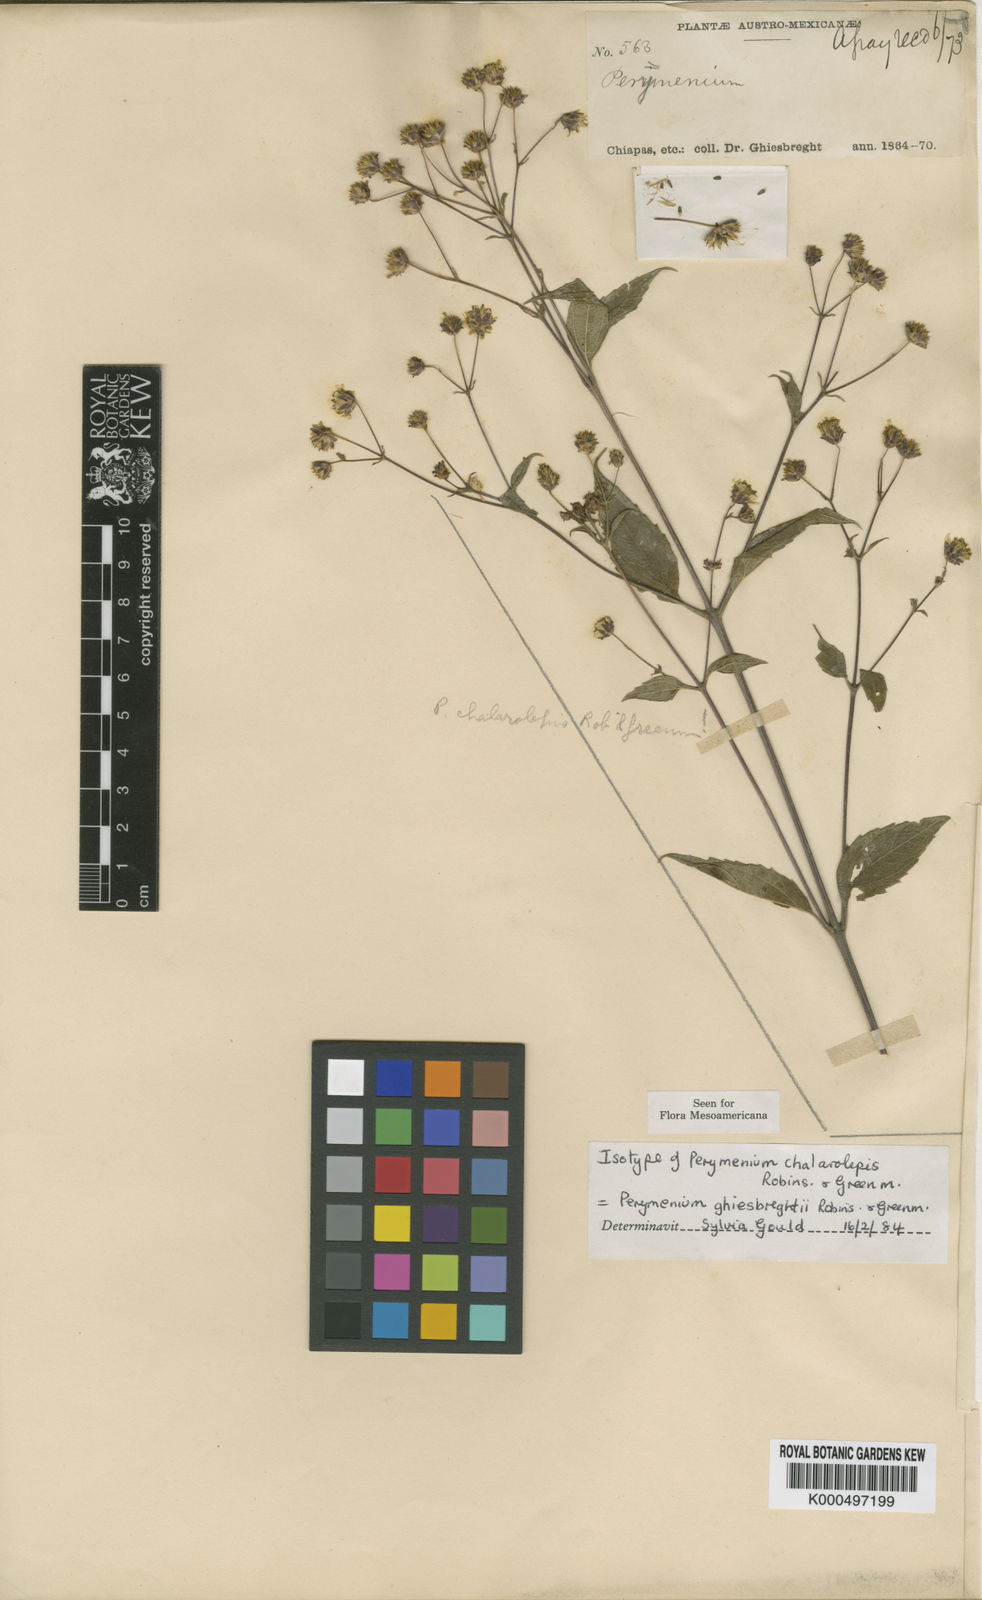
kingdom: Plantae
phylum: Tracheophyta
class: Magnoliopsida
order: Asterales
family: Asteraceae
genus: Perymenium
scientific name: Perymenium ghiesbreghtii
